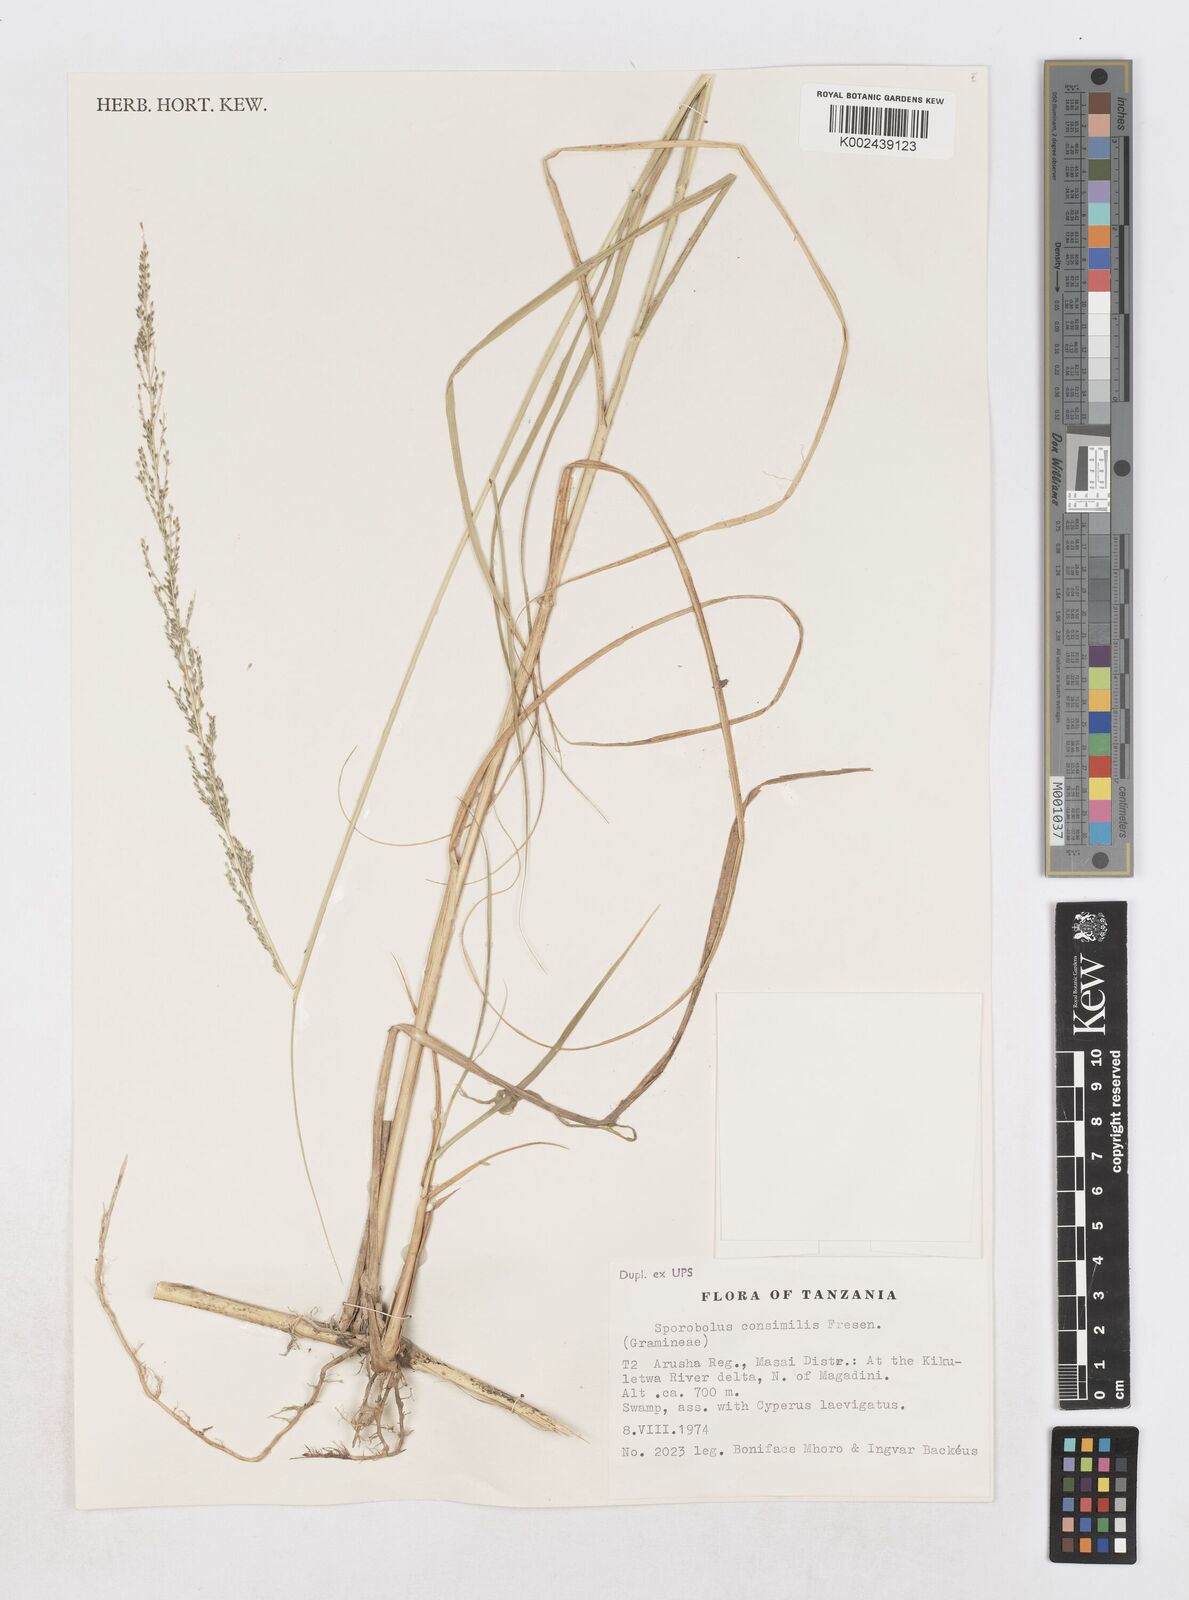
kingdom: Plantae
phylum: Tracheophyta
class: Liliopsida
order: Poales
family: Poaceae
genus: Sporobolus
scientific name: Sporobolus consimilis
